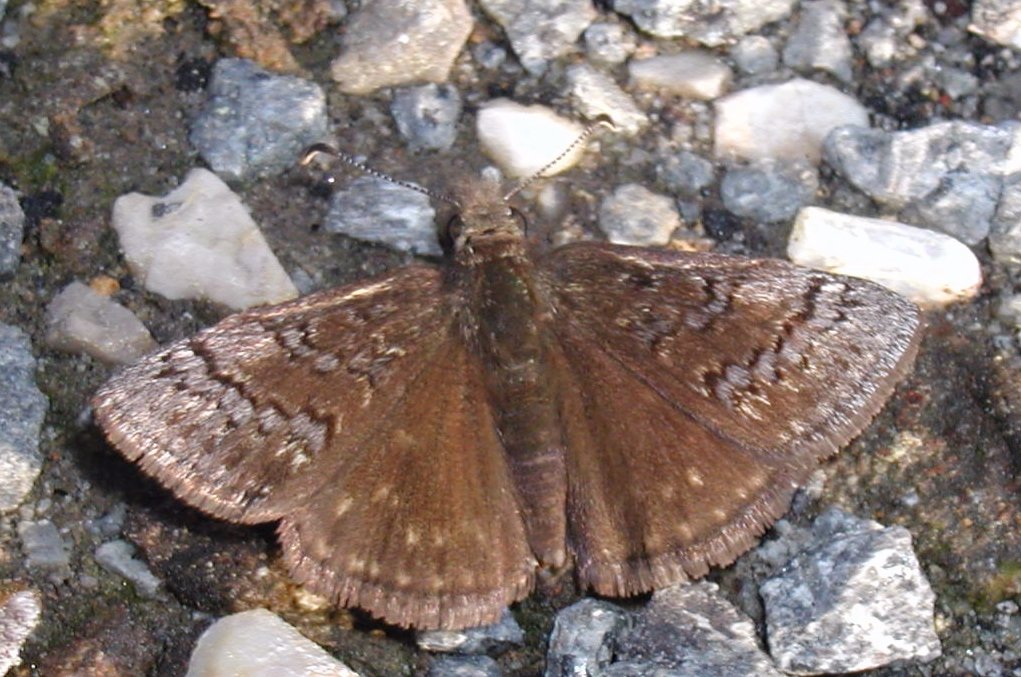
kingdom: Animalia
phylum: Arthropoda
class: Insecta
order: Lepidoptera
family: Hesperiidae
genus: Erynnis
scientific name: Erynnis brizo
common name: Sleepy Duskywing
